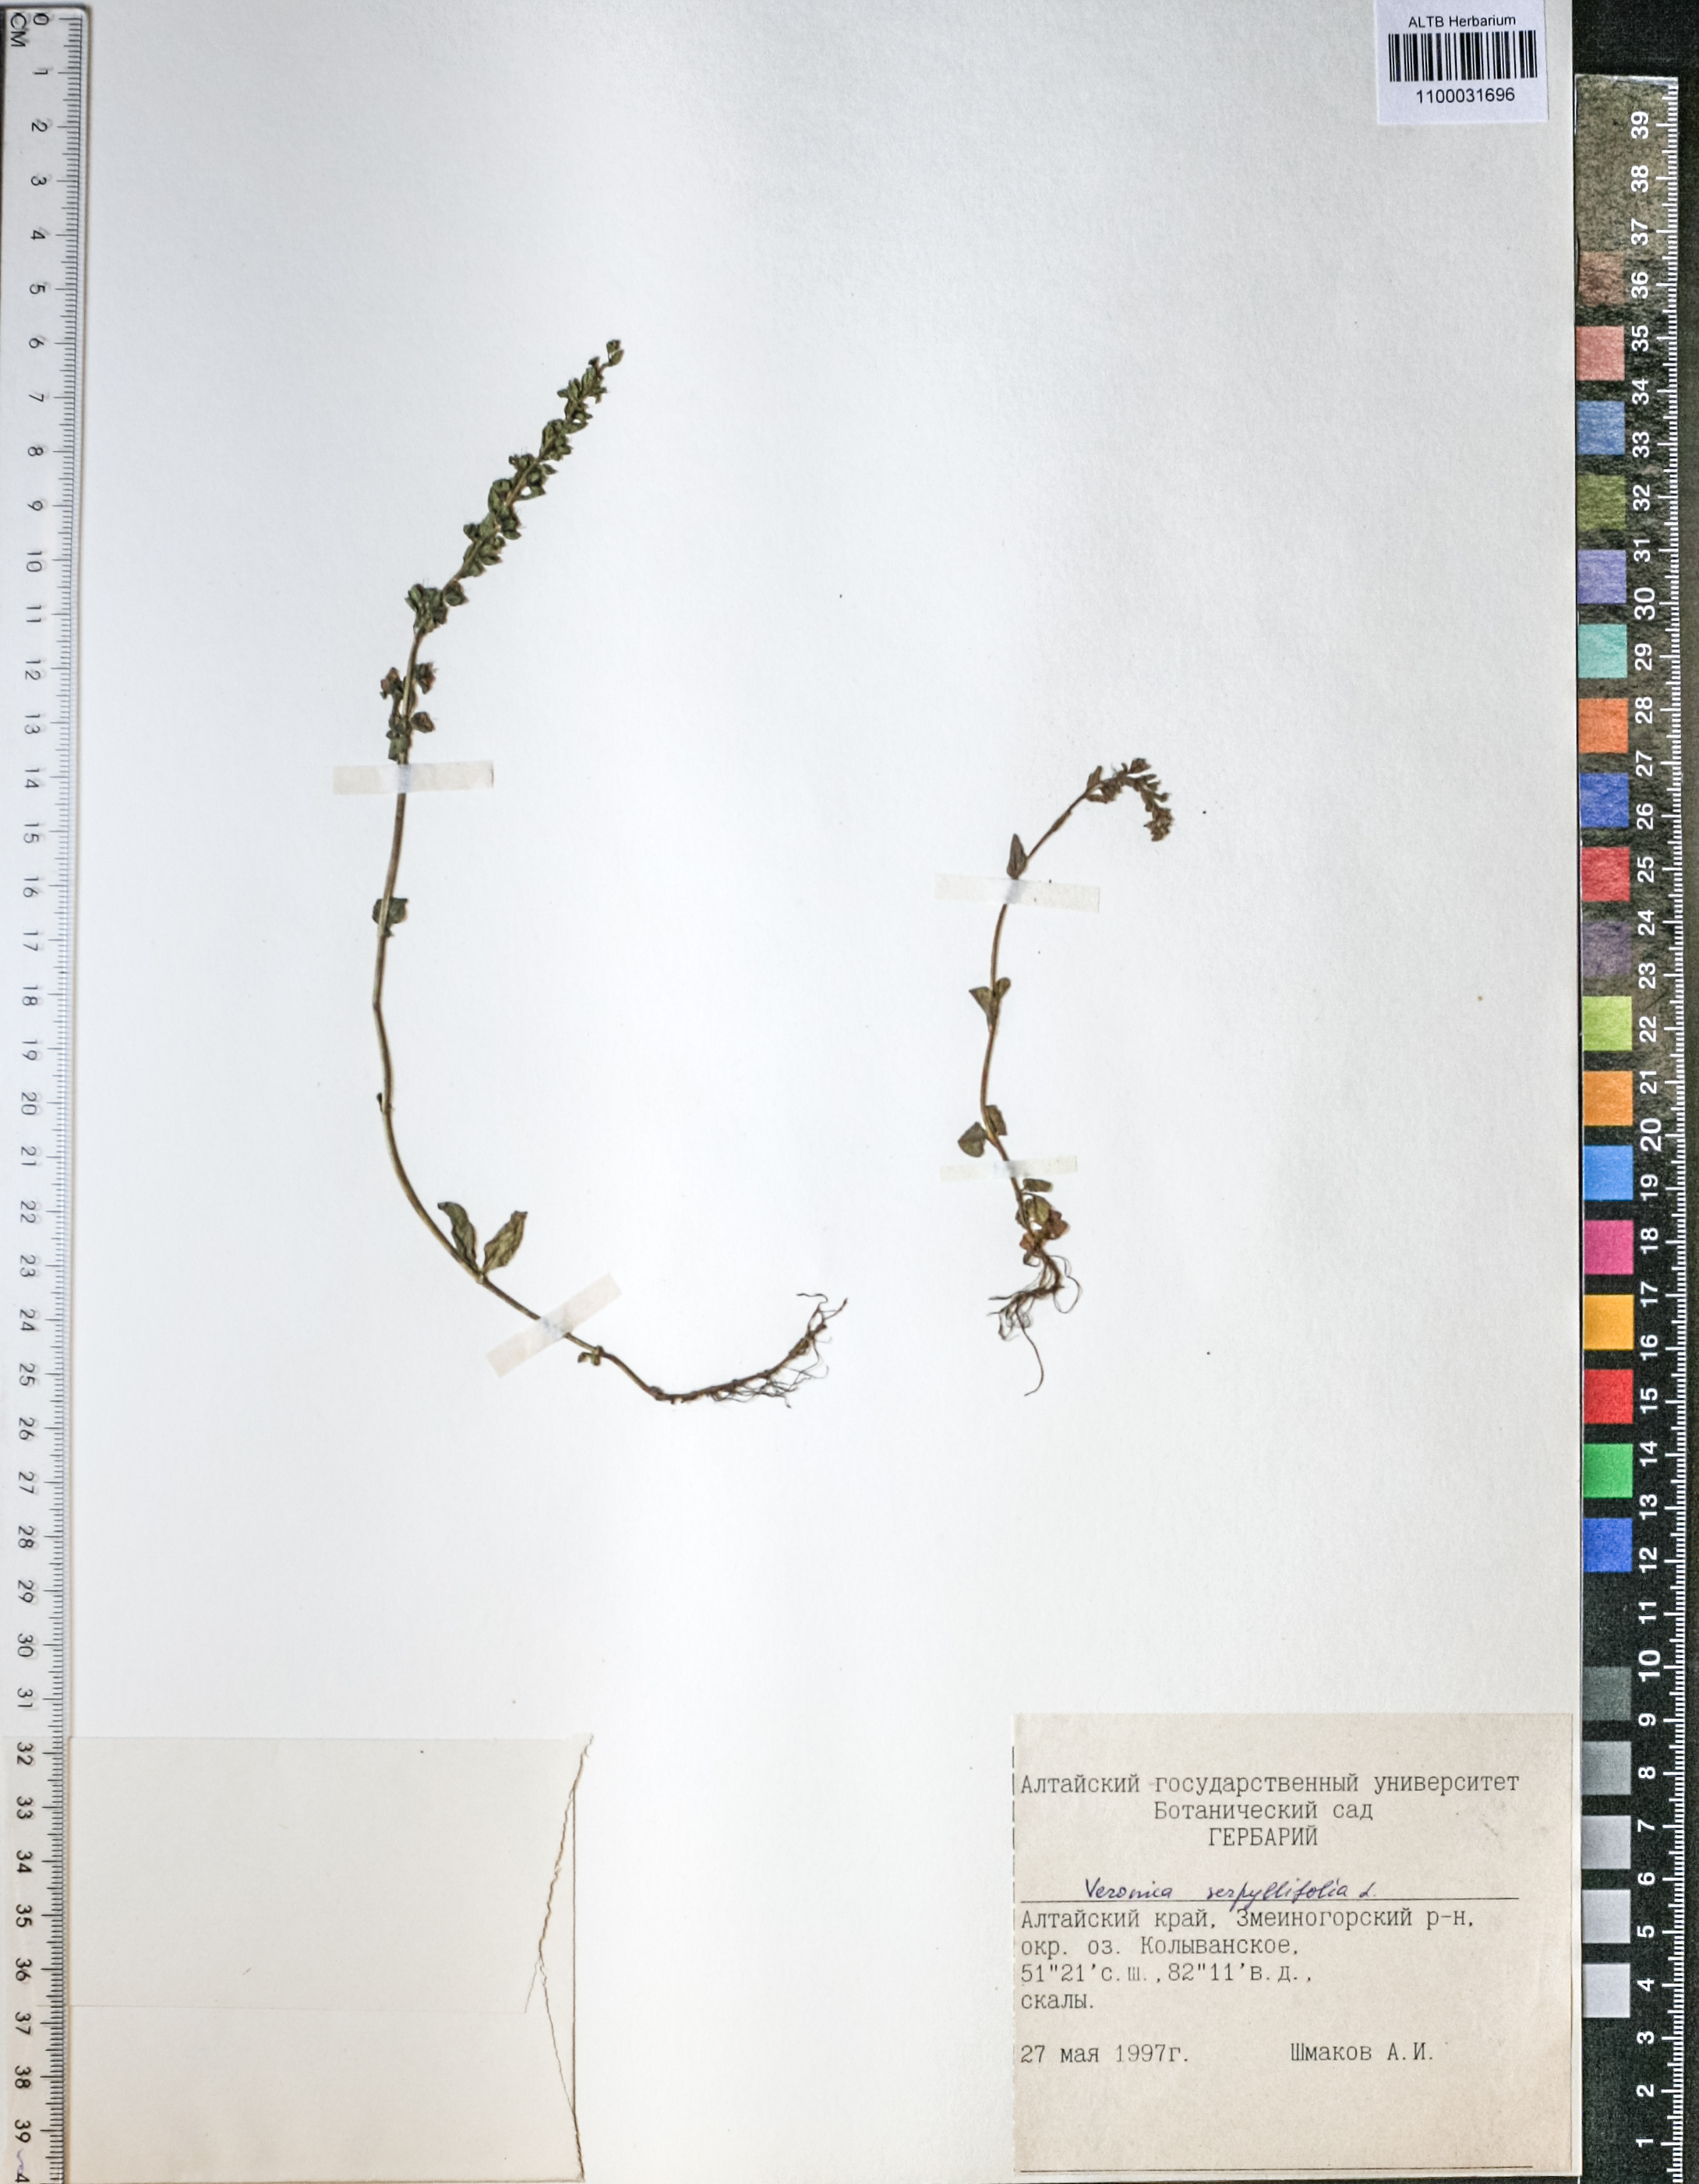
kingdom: Plantae
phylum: Tracheophyta
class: Magnoliopsida
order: Lamiales
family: Plantaginaceae
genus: Veronica
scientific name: Veronica serpyllifolia
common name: Thyme-leaved speedwell
